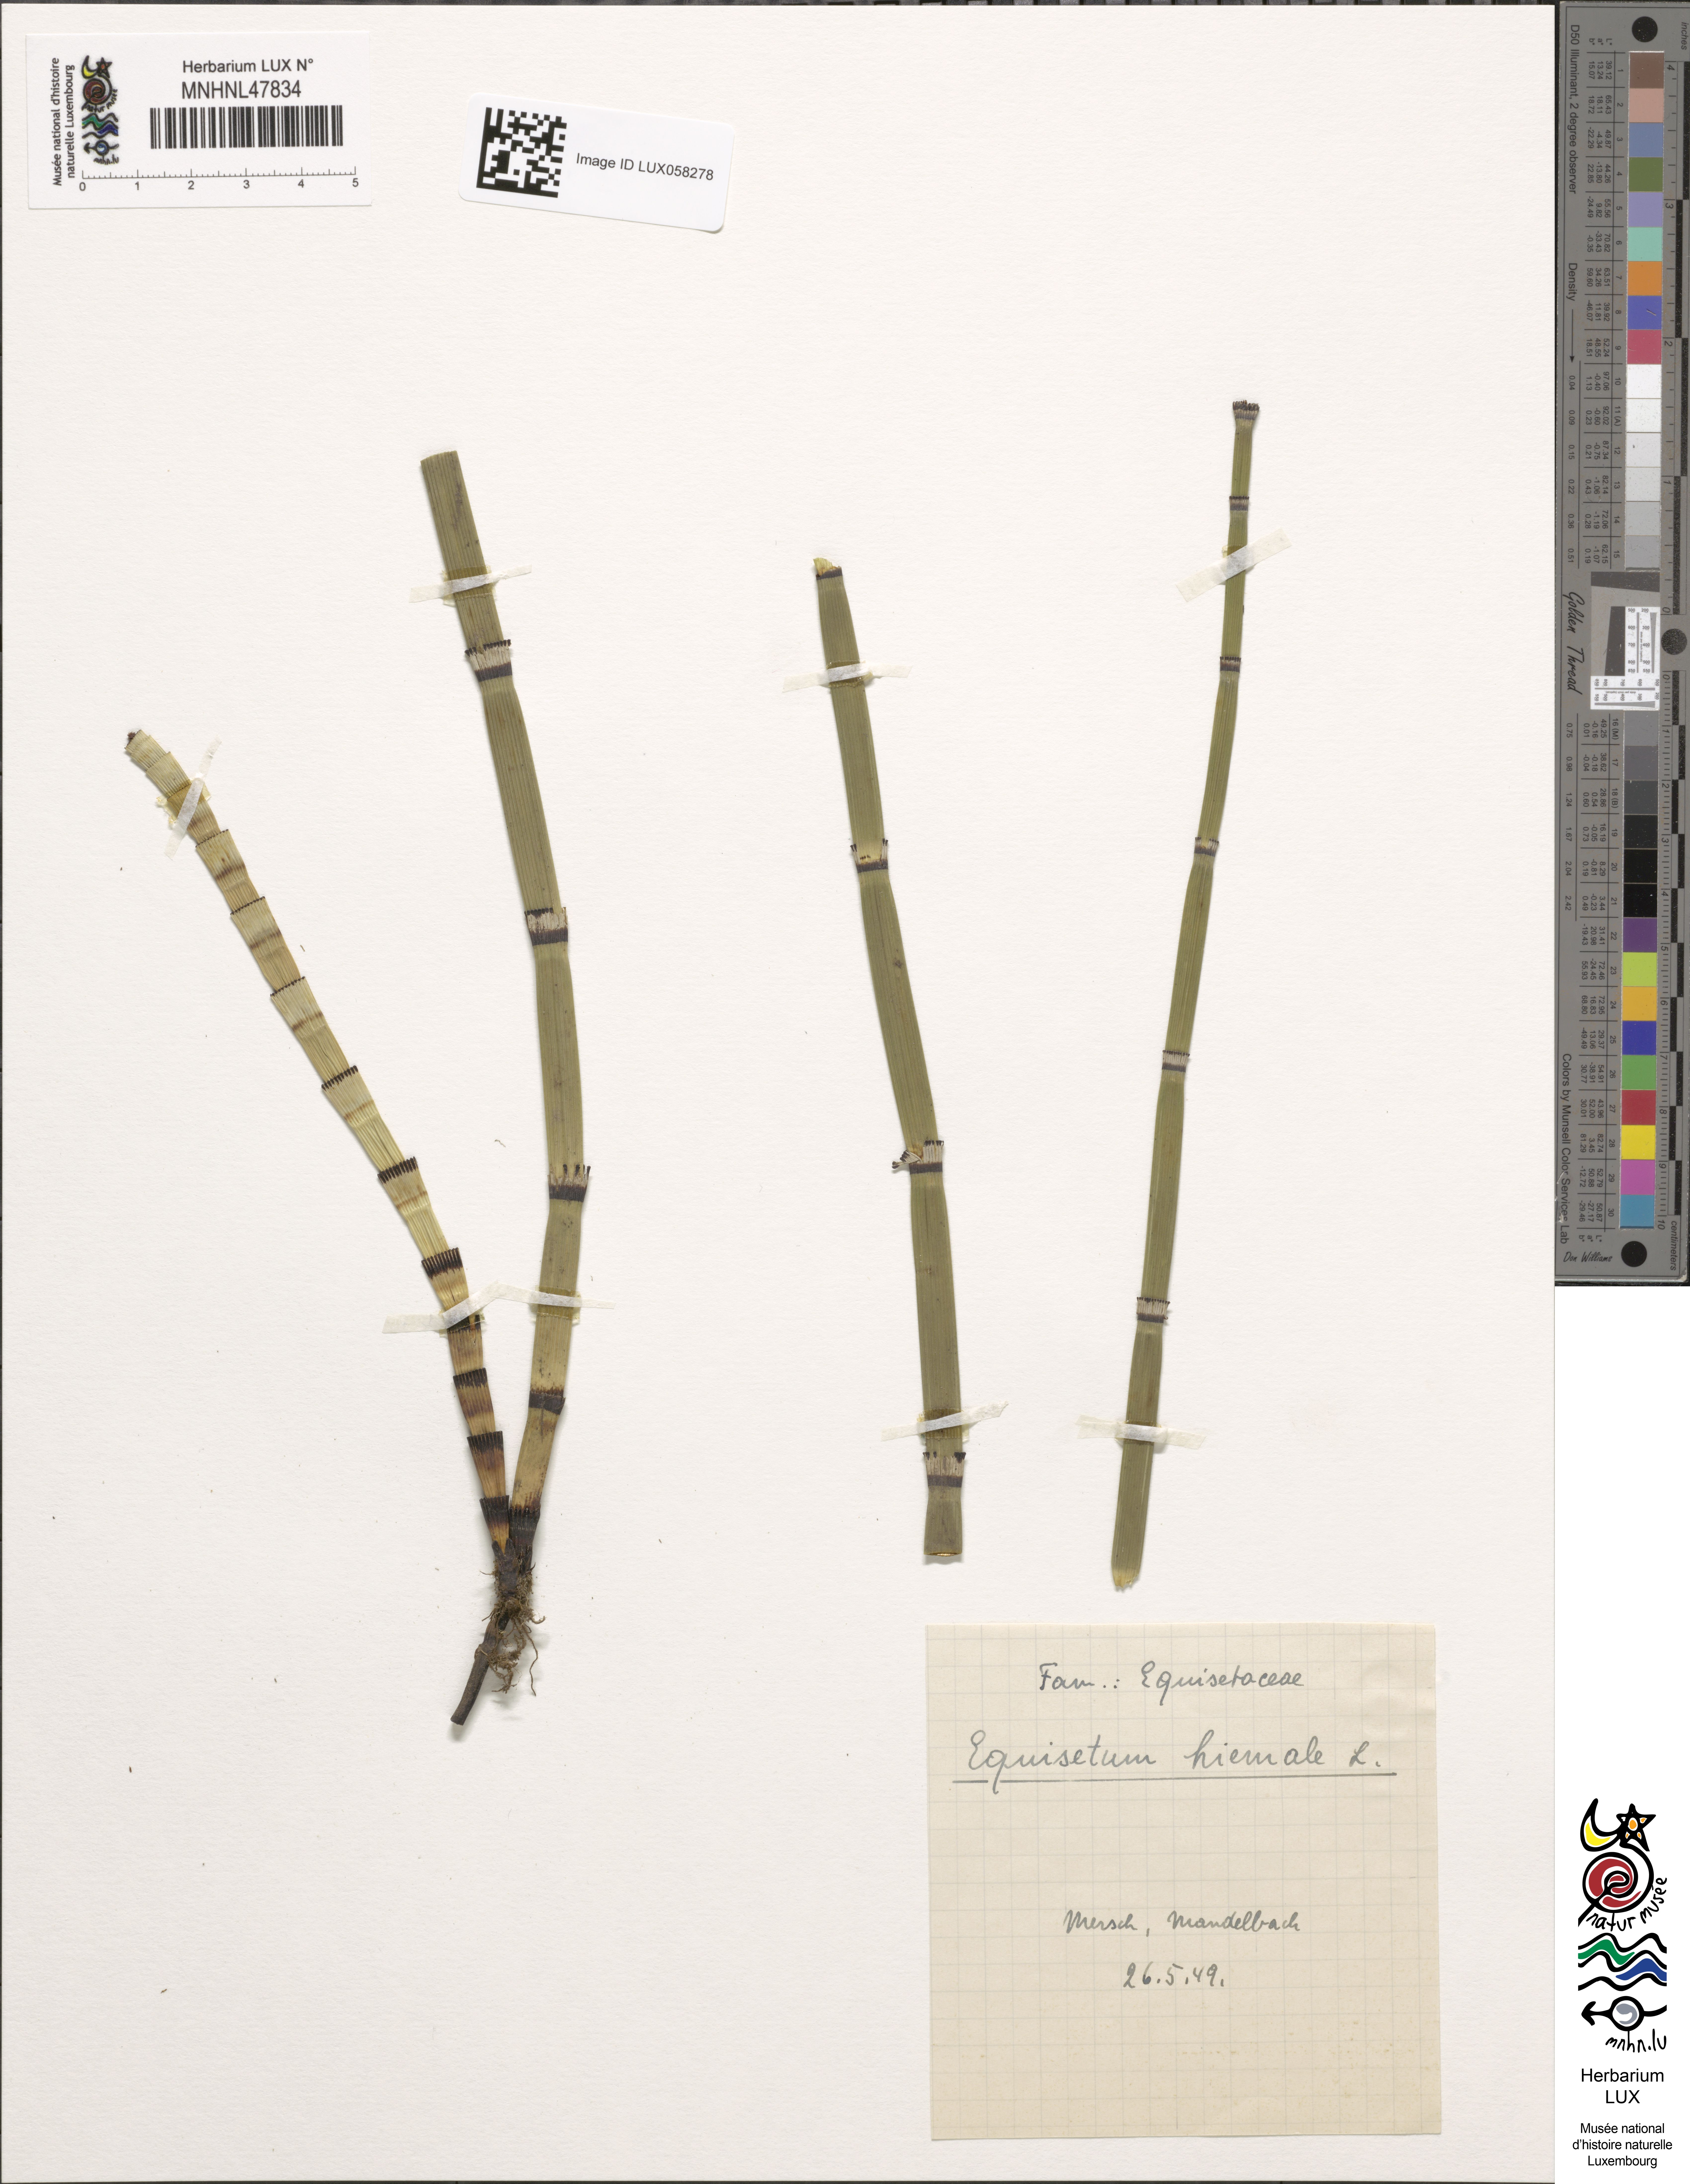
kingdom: Plantae
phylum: Tracheophyta
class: Polypodiopsida
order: Equisetales
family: Equisetaceae
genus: Equisetum
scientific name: Equisetum hyemale
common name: Rough horsetail
